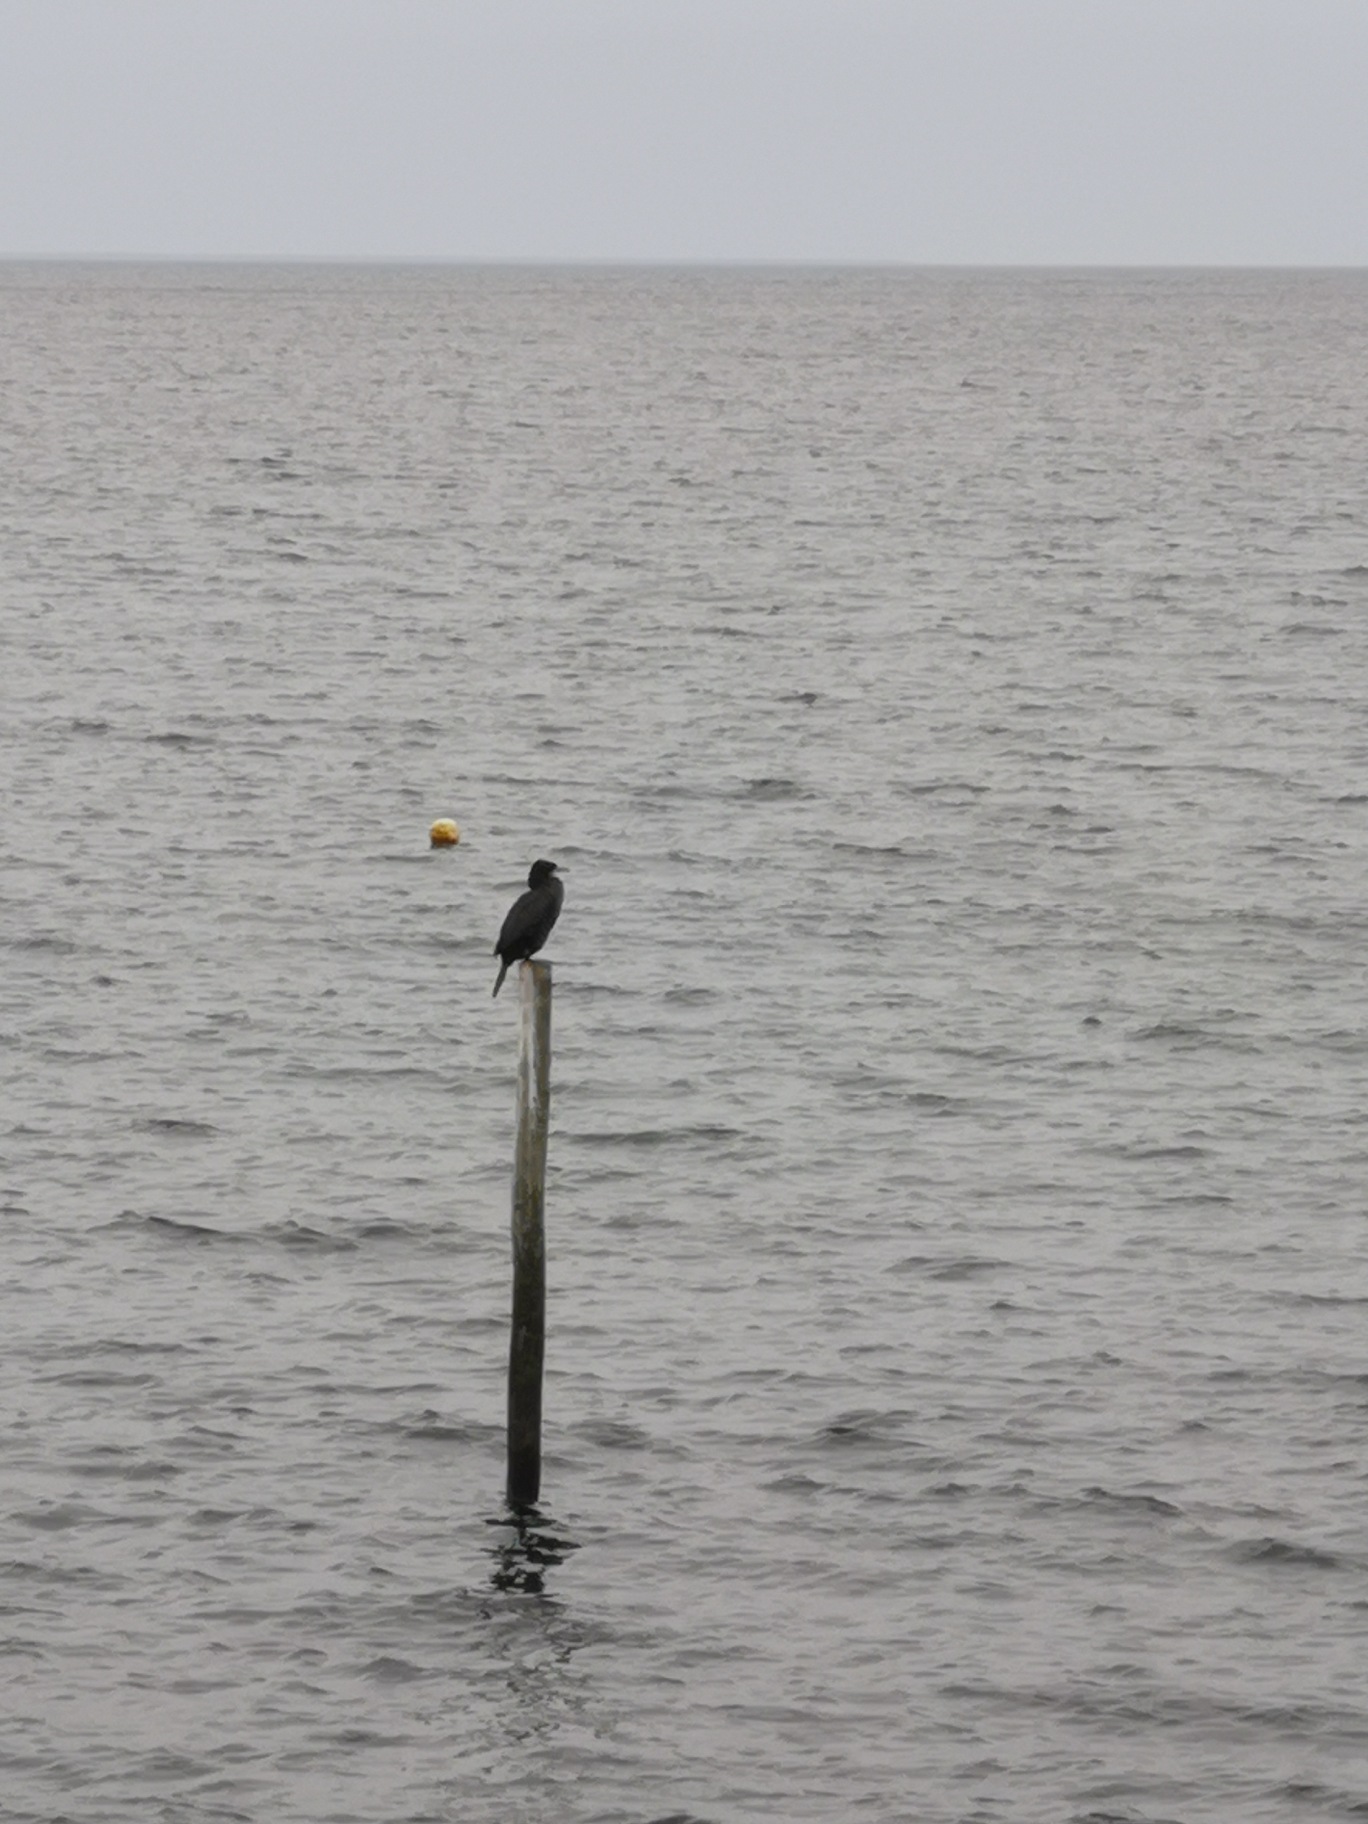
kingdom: Animalia
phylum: Chordata
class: Aves
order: Suliformes
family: Phalacrocoracidae
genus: Phalacrocorax
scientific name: Phalacrocorax carbo
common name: Skarv
